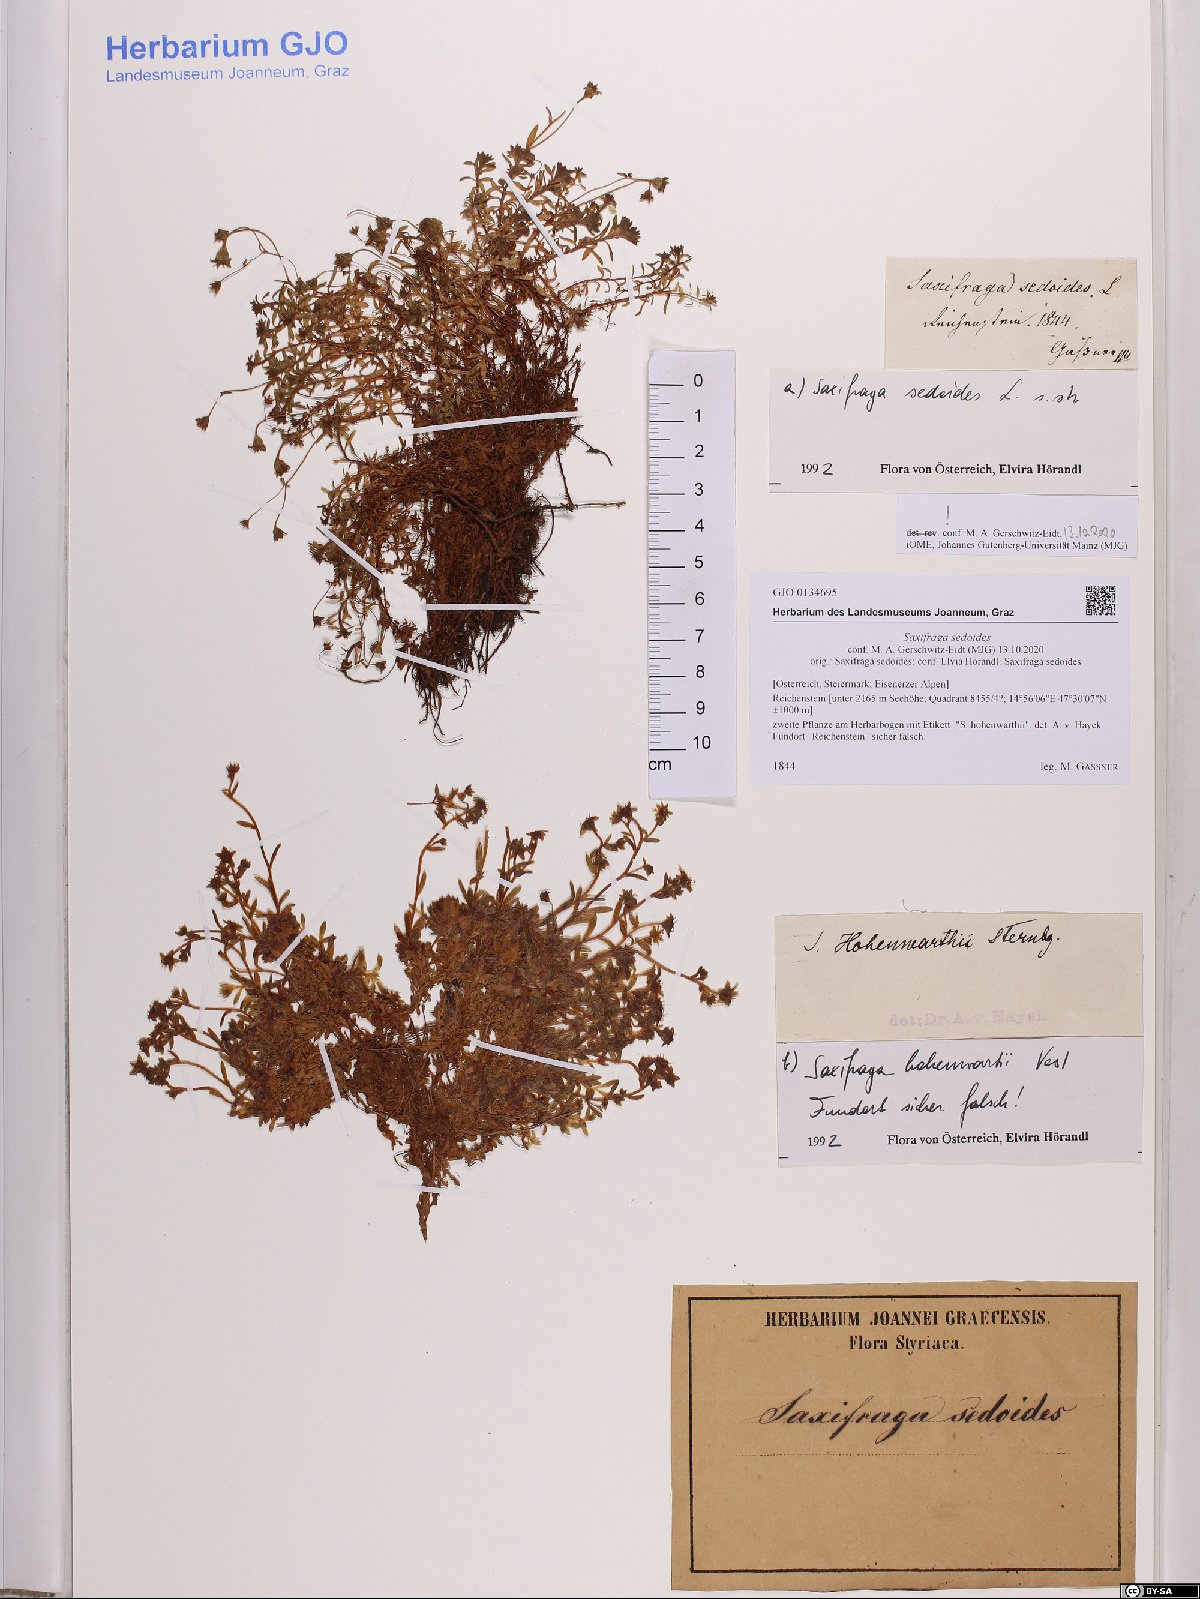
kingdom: Plantae
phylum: Tracheophyta
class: Magnoliopsida
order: Saxifragales
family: Saxifragaceae
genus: Saxifraga
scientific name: Saxifraga sedoides
